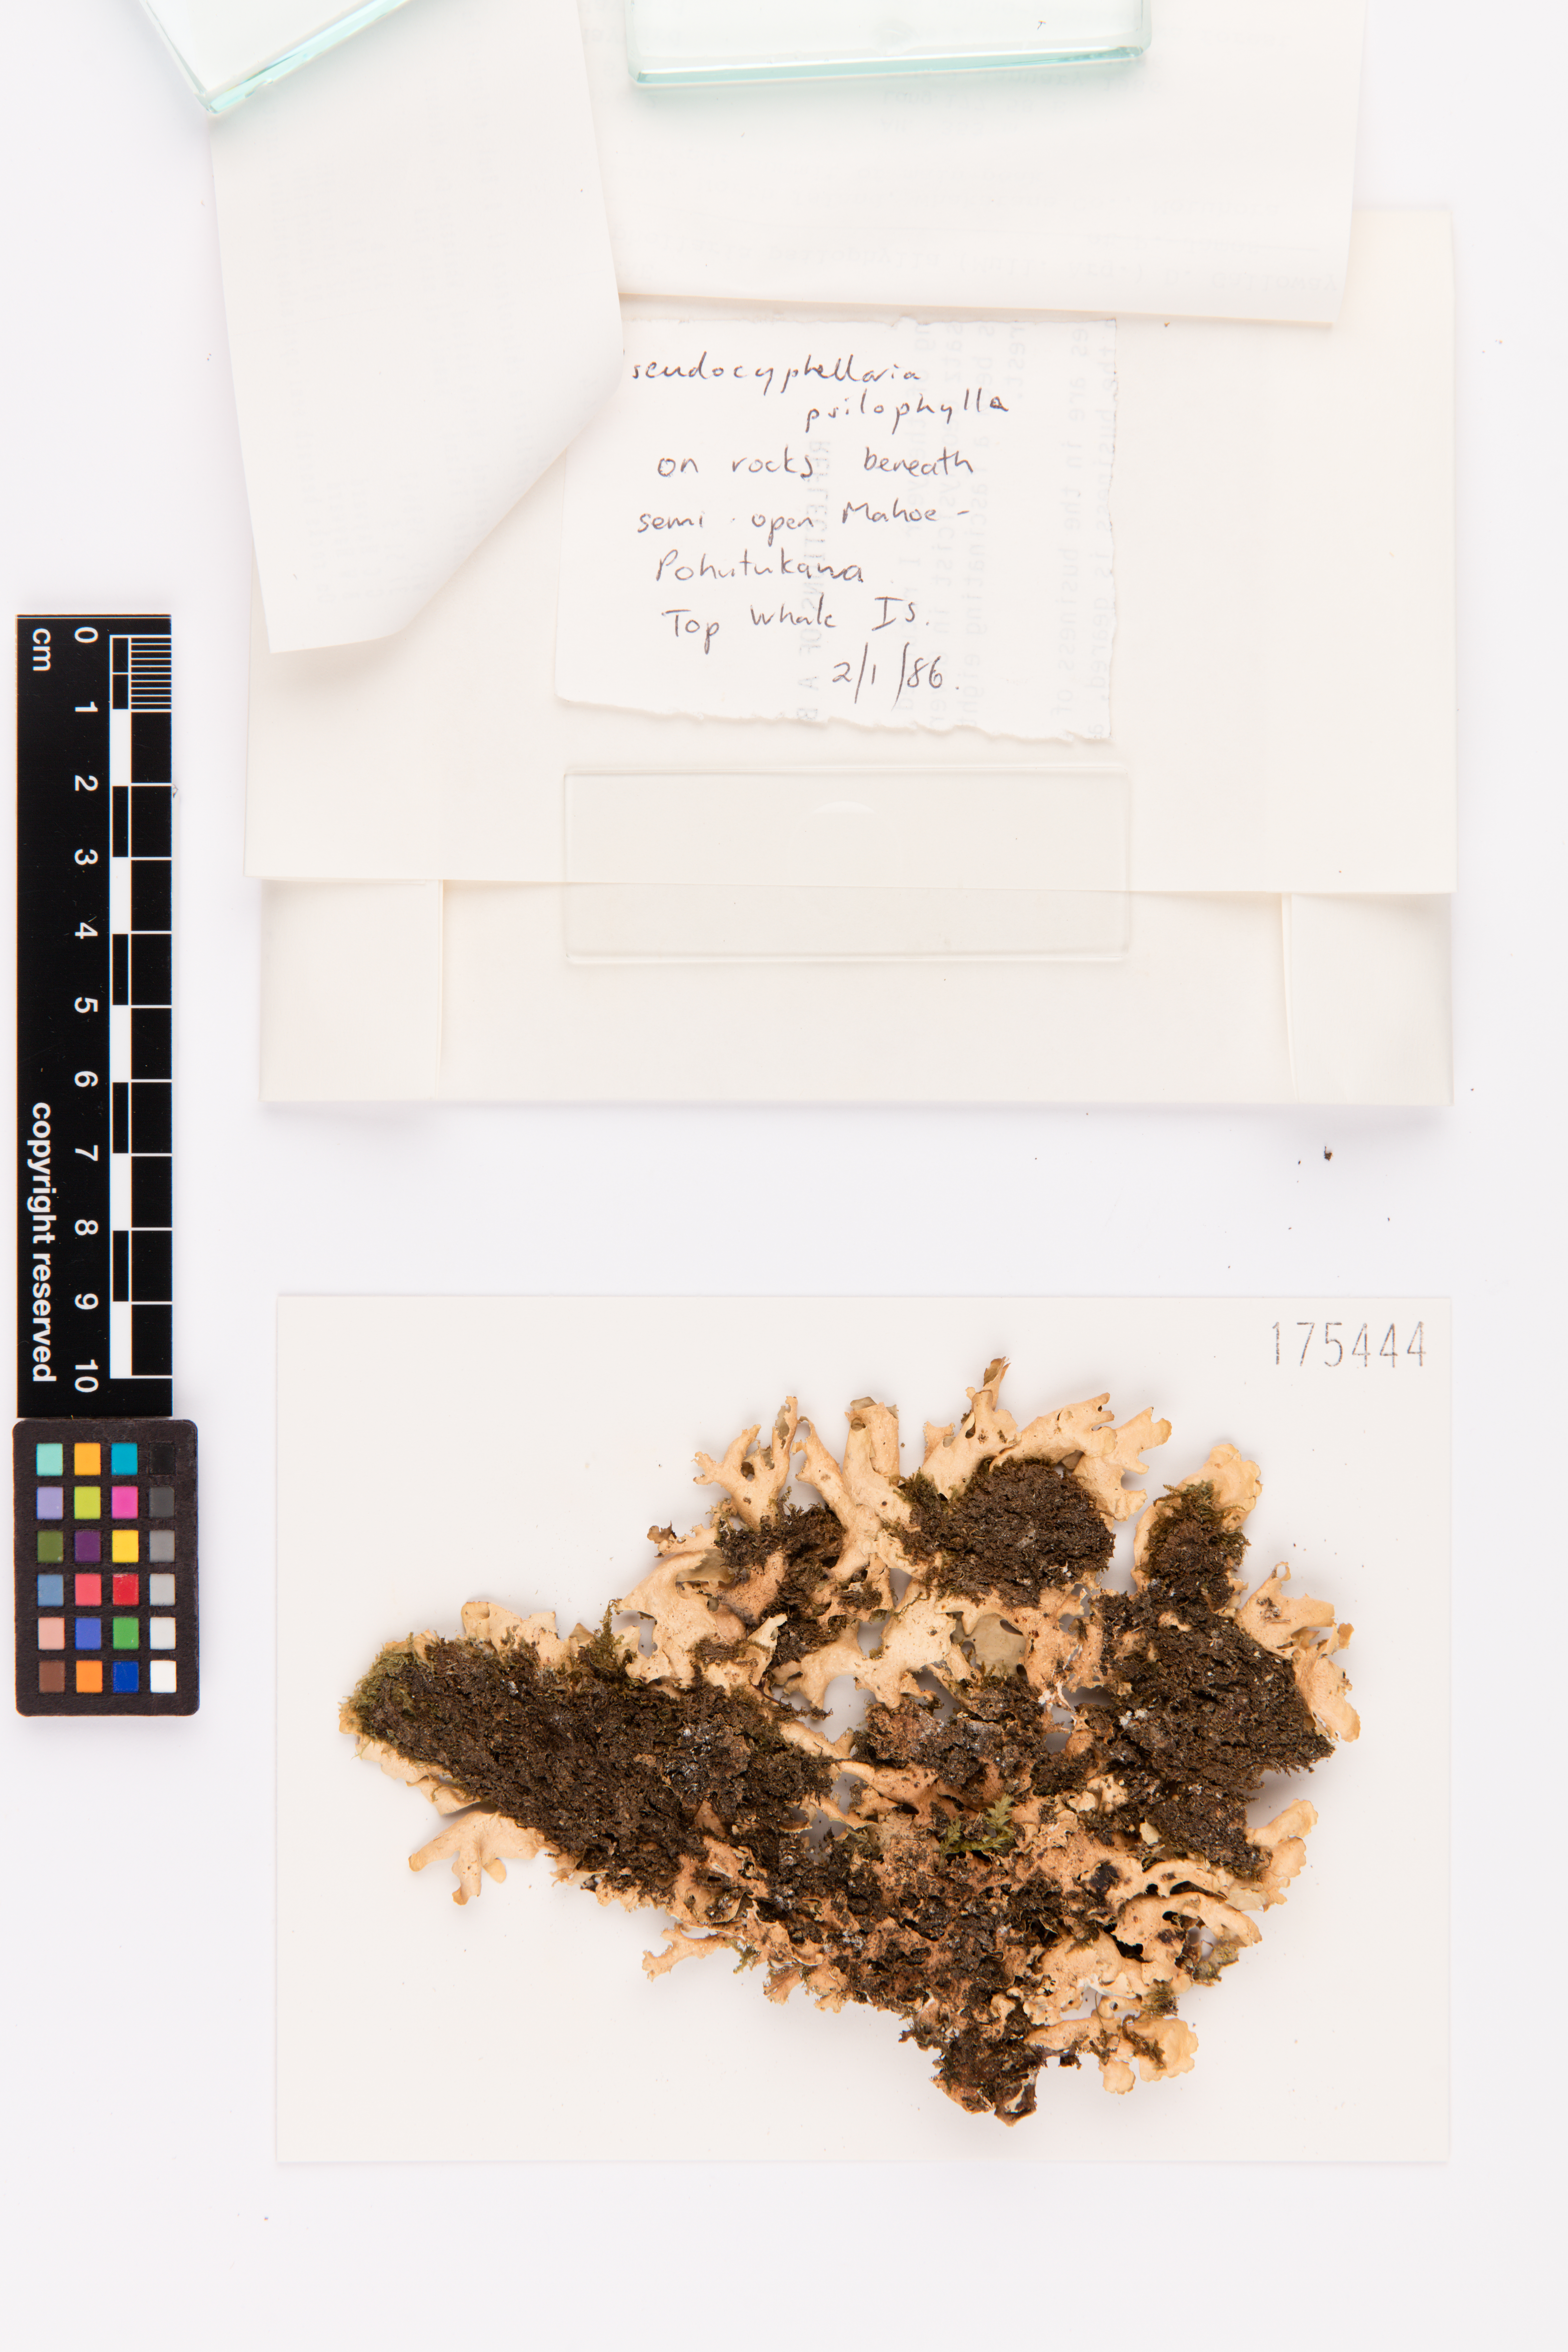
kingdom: Fungi
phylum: Ascomycota
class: Lecanoromycetes
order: Peltigerales
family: Lobariaceae
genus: Pseudocyphellaria
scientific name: Pseudocyphellaria chloroleuca
